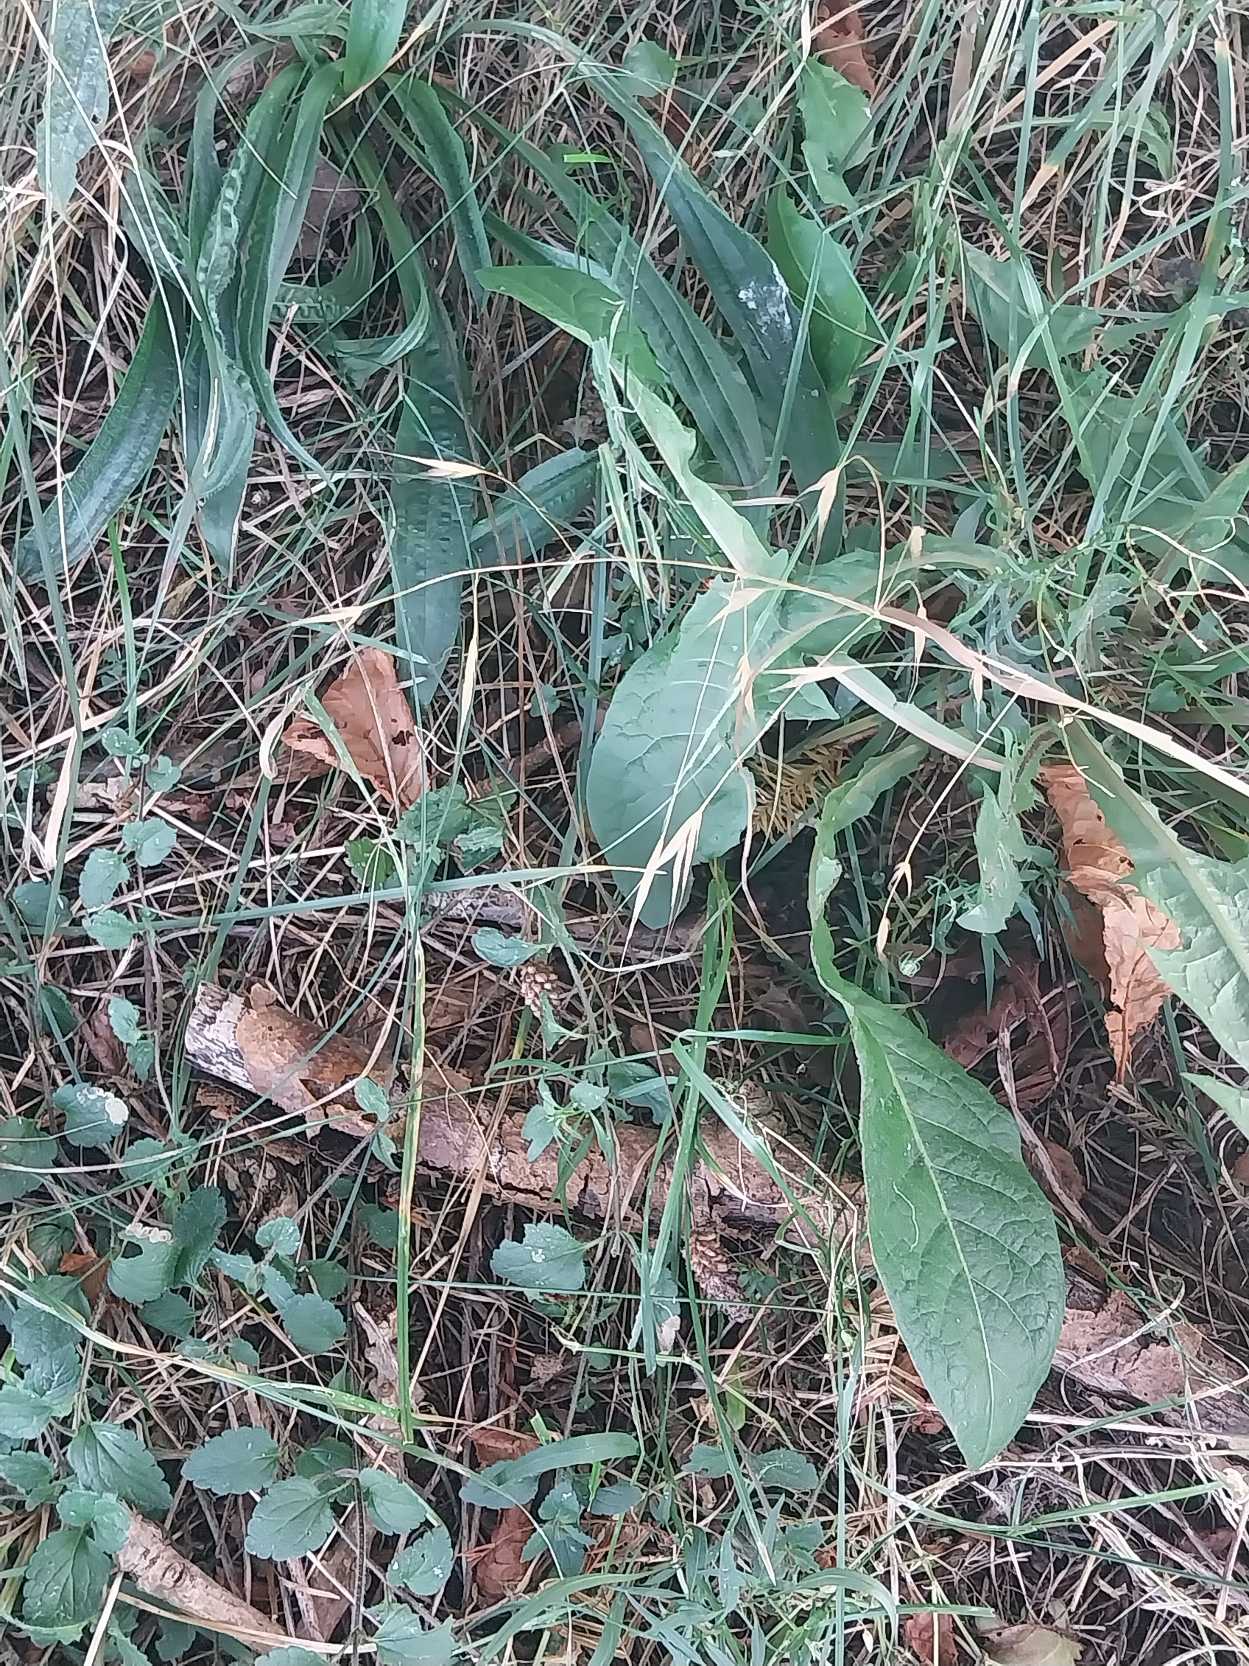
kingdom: Plantae
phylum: Tracheophyta
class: Liliopsida
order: Poales
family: Poaceae
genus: Bromus
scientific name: Bromus sterilis
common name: Gold hejre
